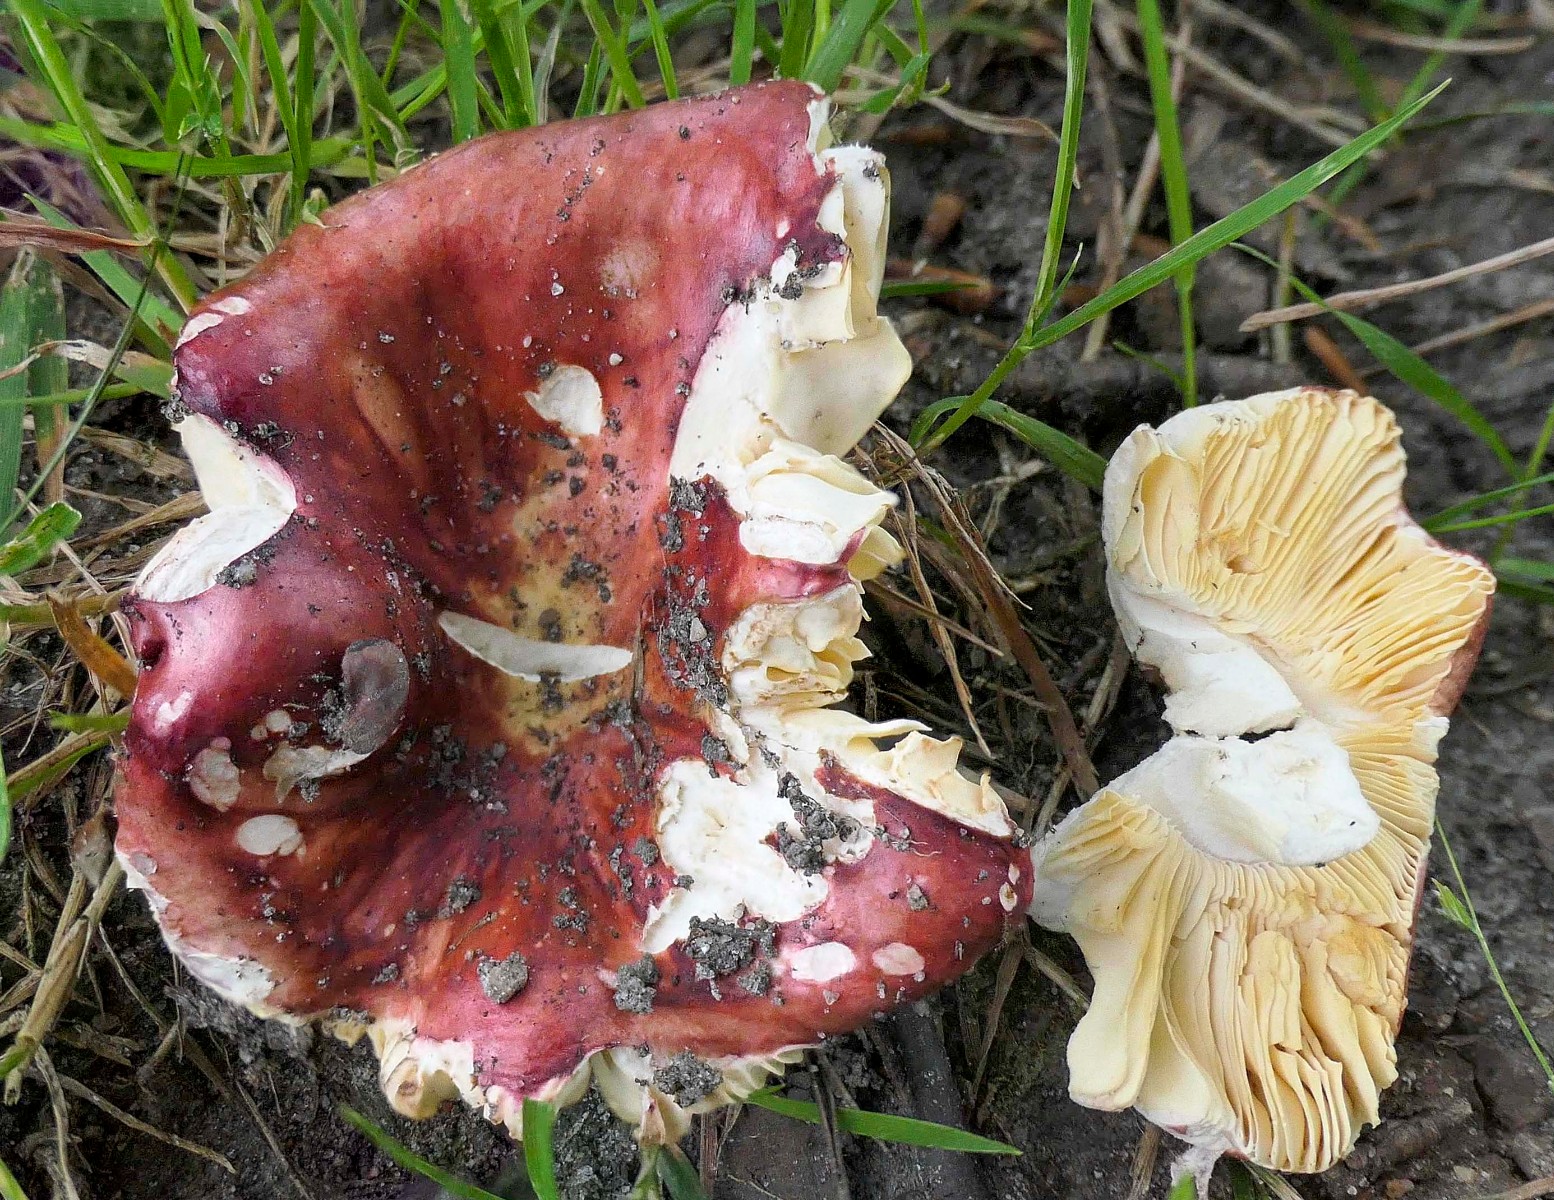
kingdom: Fungi
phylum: Basidiomycota
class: Agaricomycetes
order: Russulales
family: Russulaceae
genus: Russula
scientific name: Russula laeta
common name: orangerosa skørhat
